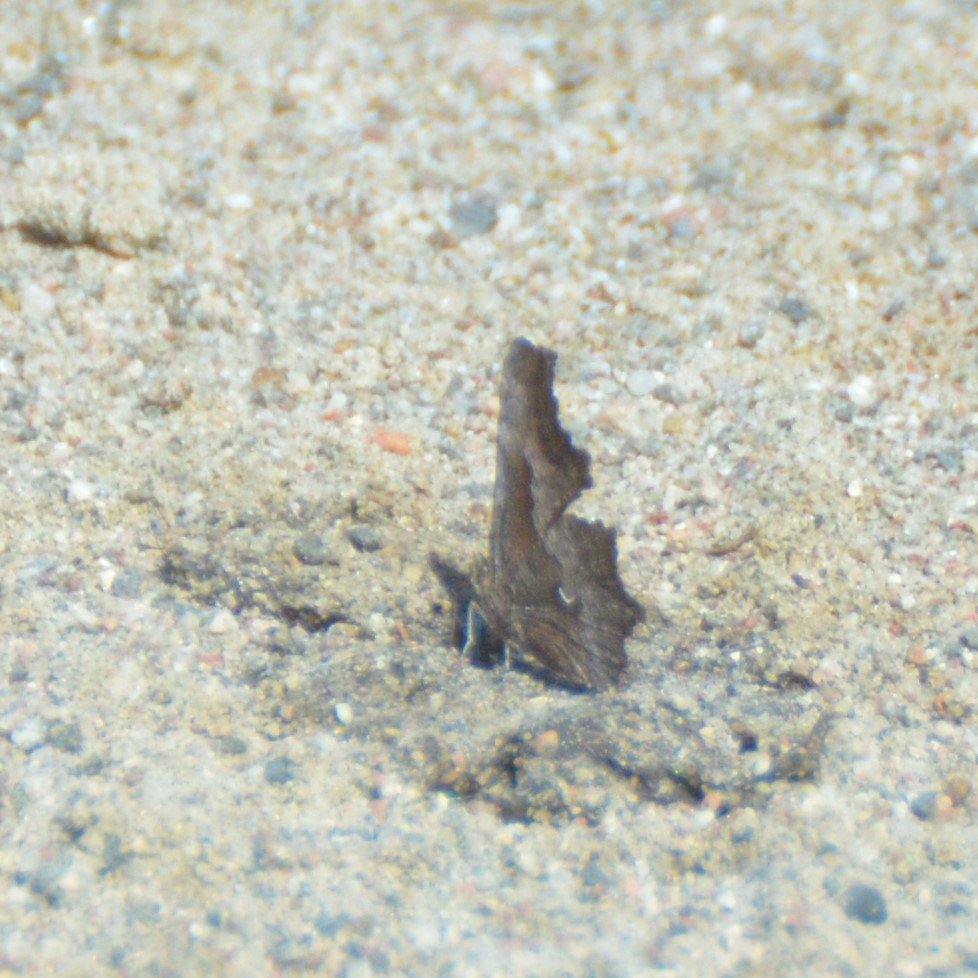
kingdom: Animalia
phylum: Arthropoda
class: Insecta
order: Lepidoptera
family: Nymphalidae
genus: Polygonia
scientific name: Polygonia gracilis
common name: Hoary Comma
